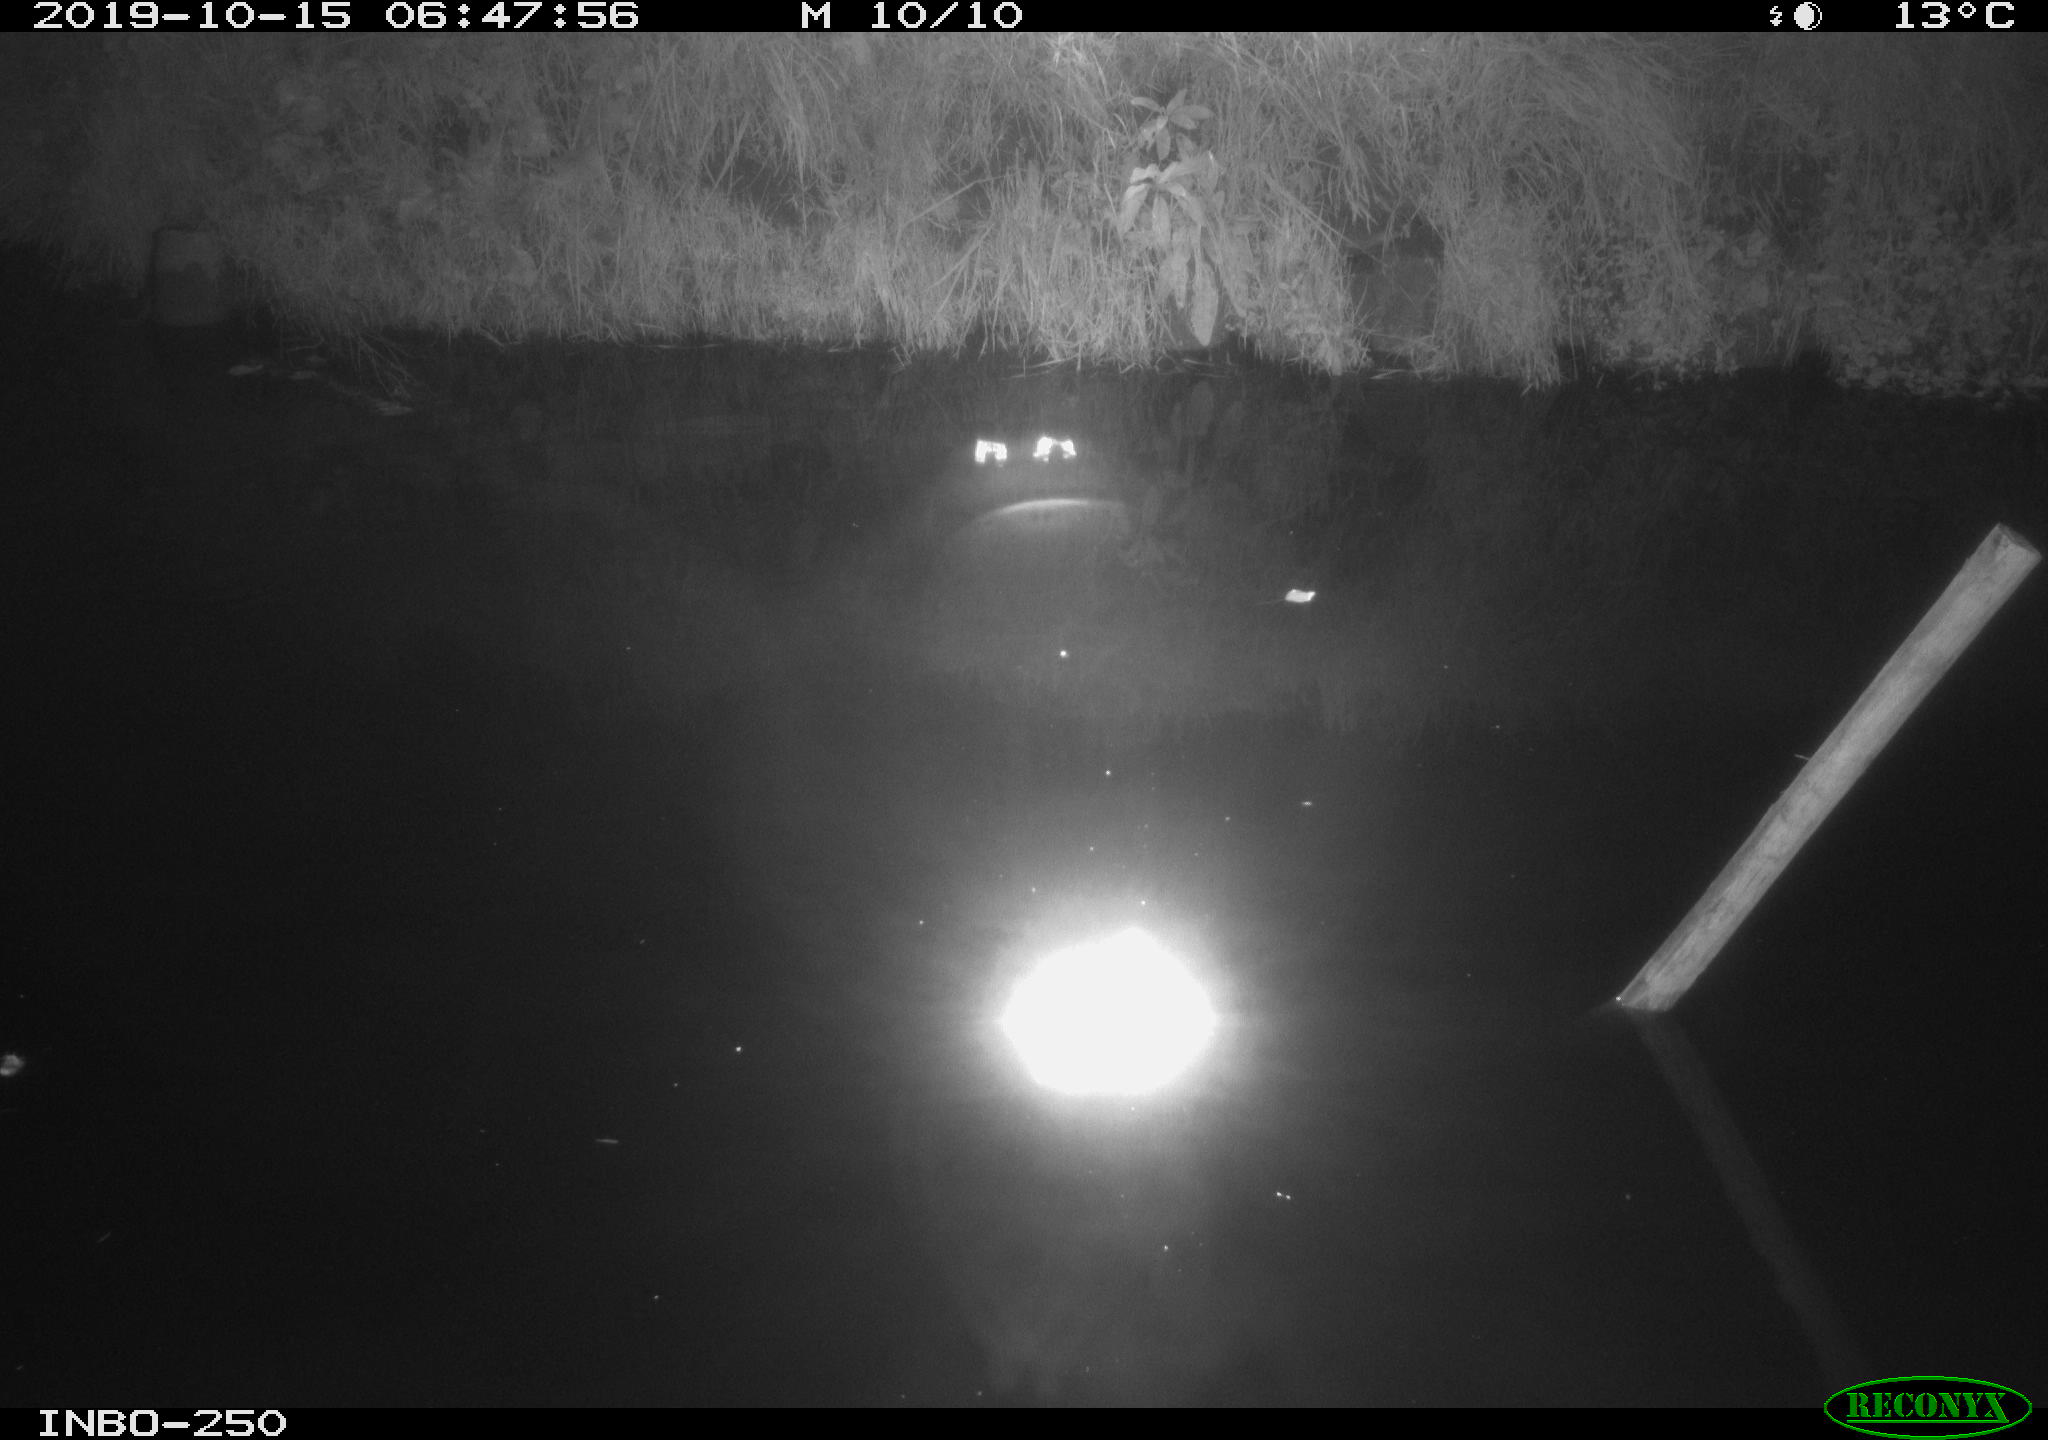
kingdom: Animalia
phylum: Chordata
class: Aves
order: Anseriformes
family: Anatidae
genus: Anas
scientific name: Anas platyrhynchos
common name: Mallard
